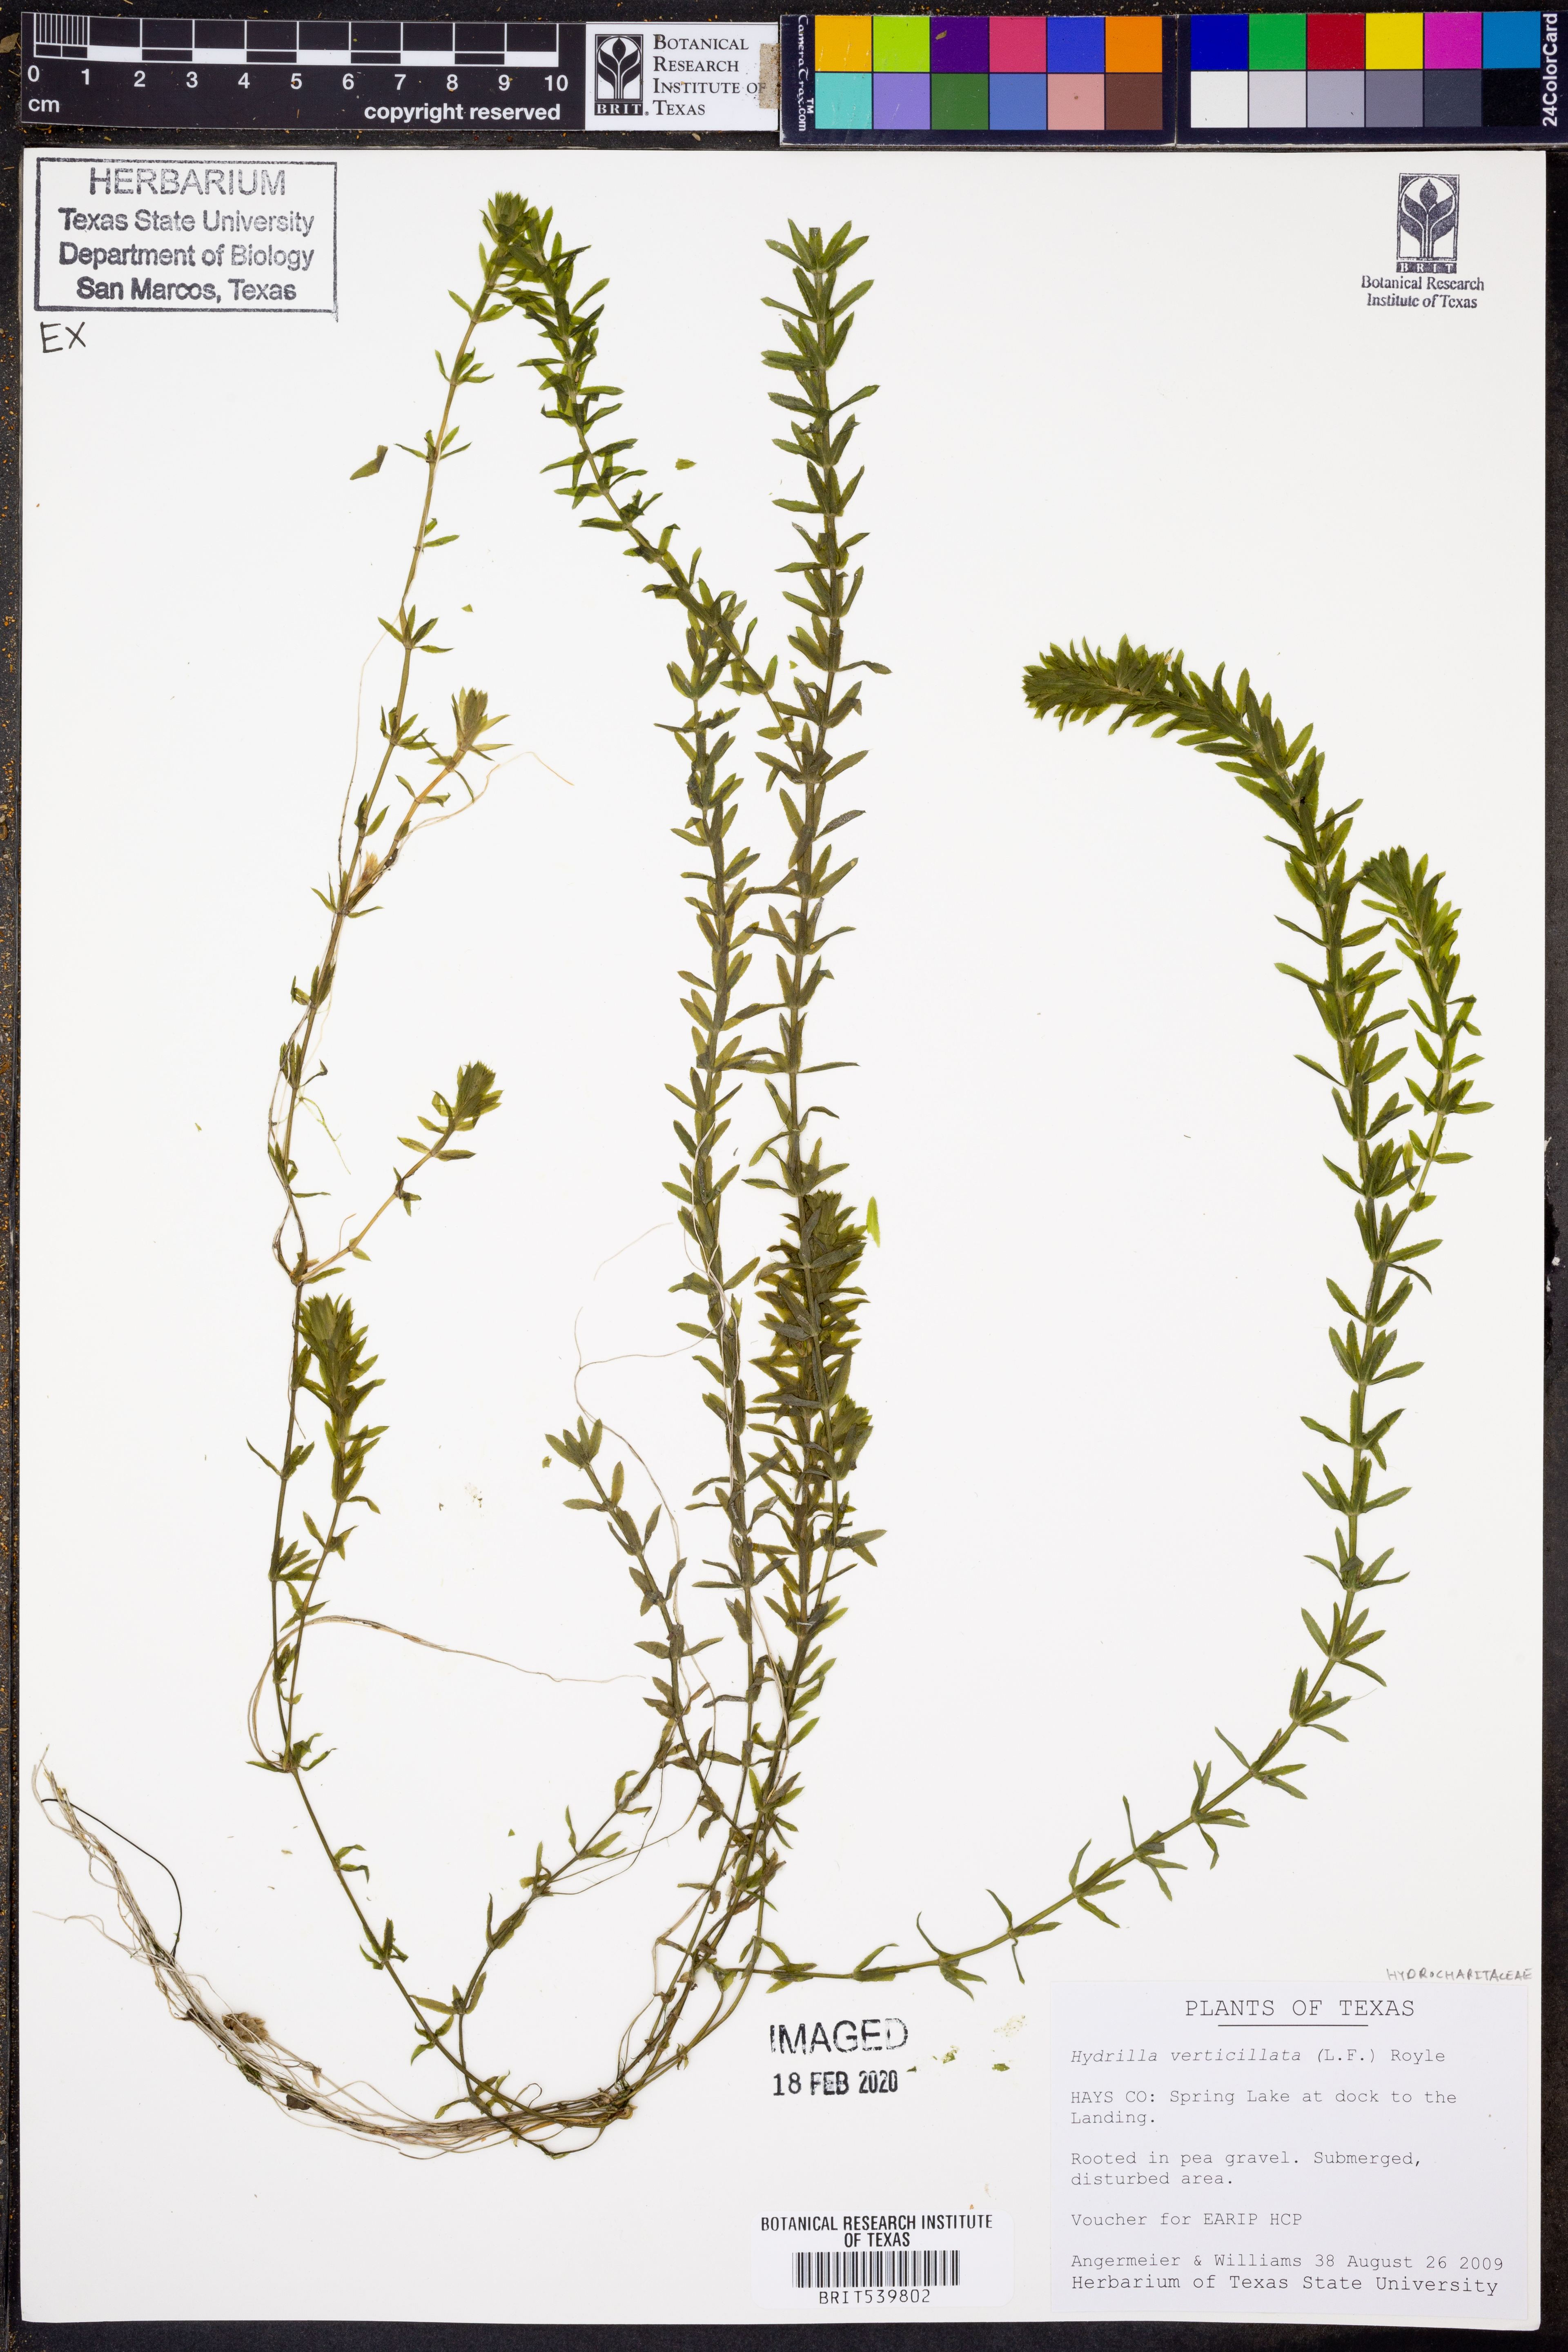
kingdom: Plantae
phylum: Tracheophyta
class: Liliopsida
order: Alismatales
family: Hydrocharitaceae
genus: Hydrilla
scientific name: Hydrilla verticillata
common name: Florida-elodea
